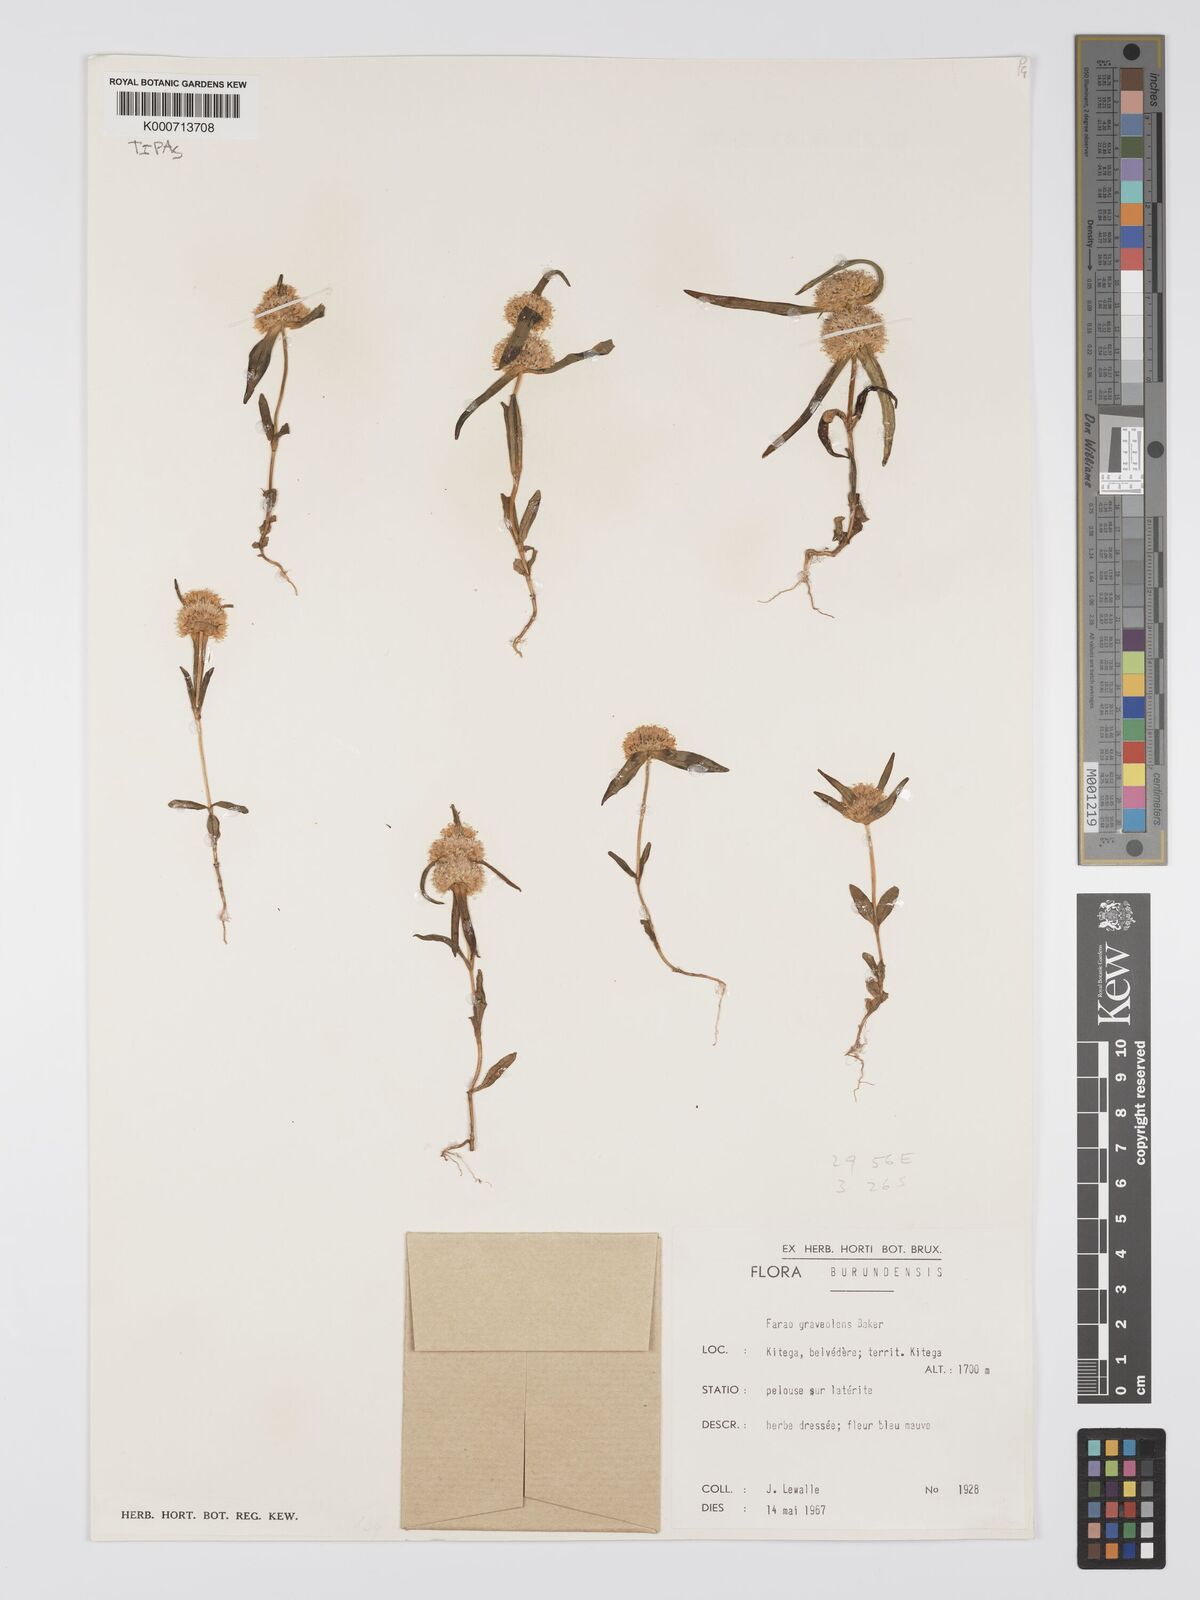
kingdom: Plantae
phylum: Tracheophyta
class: Magnoliopsida
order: Gentianales
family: Gentianaceae
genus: Faroa
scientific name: Faroa graveolens
